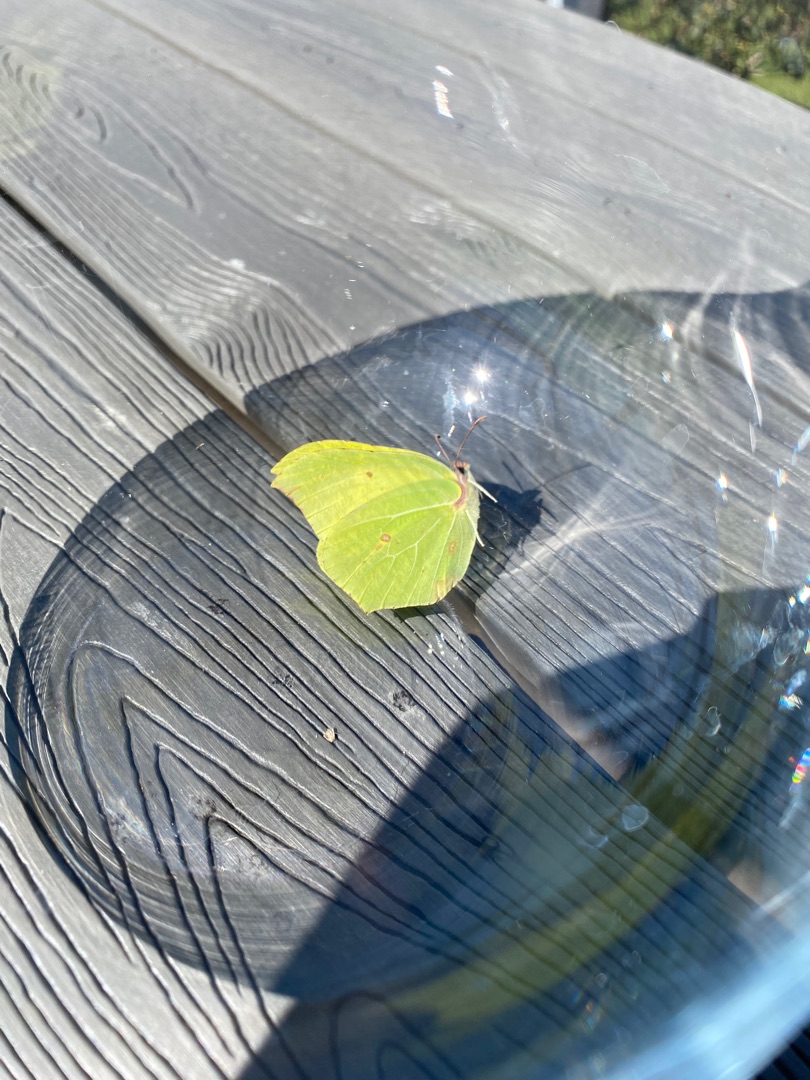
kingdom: Animalia
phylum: Arthropoda
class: Insecta
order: Lepidoptera
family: Pieridae
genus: Gonepteryx
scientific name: Gonepteryx rhamni
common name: Citronsommerfugl
